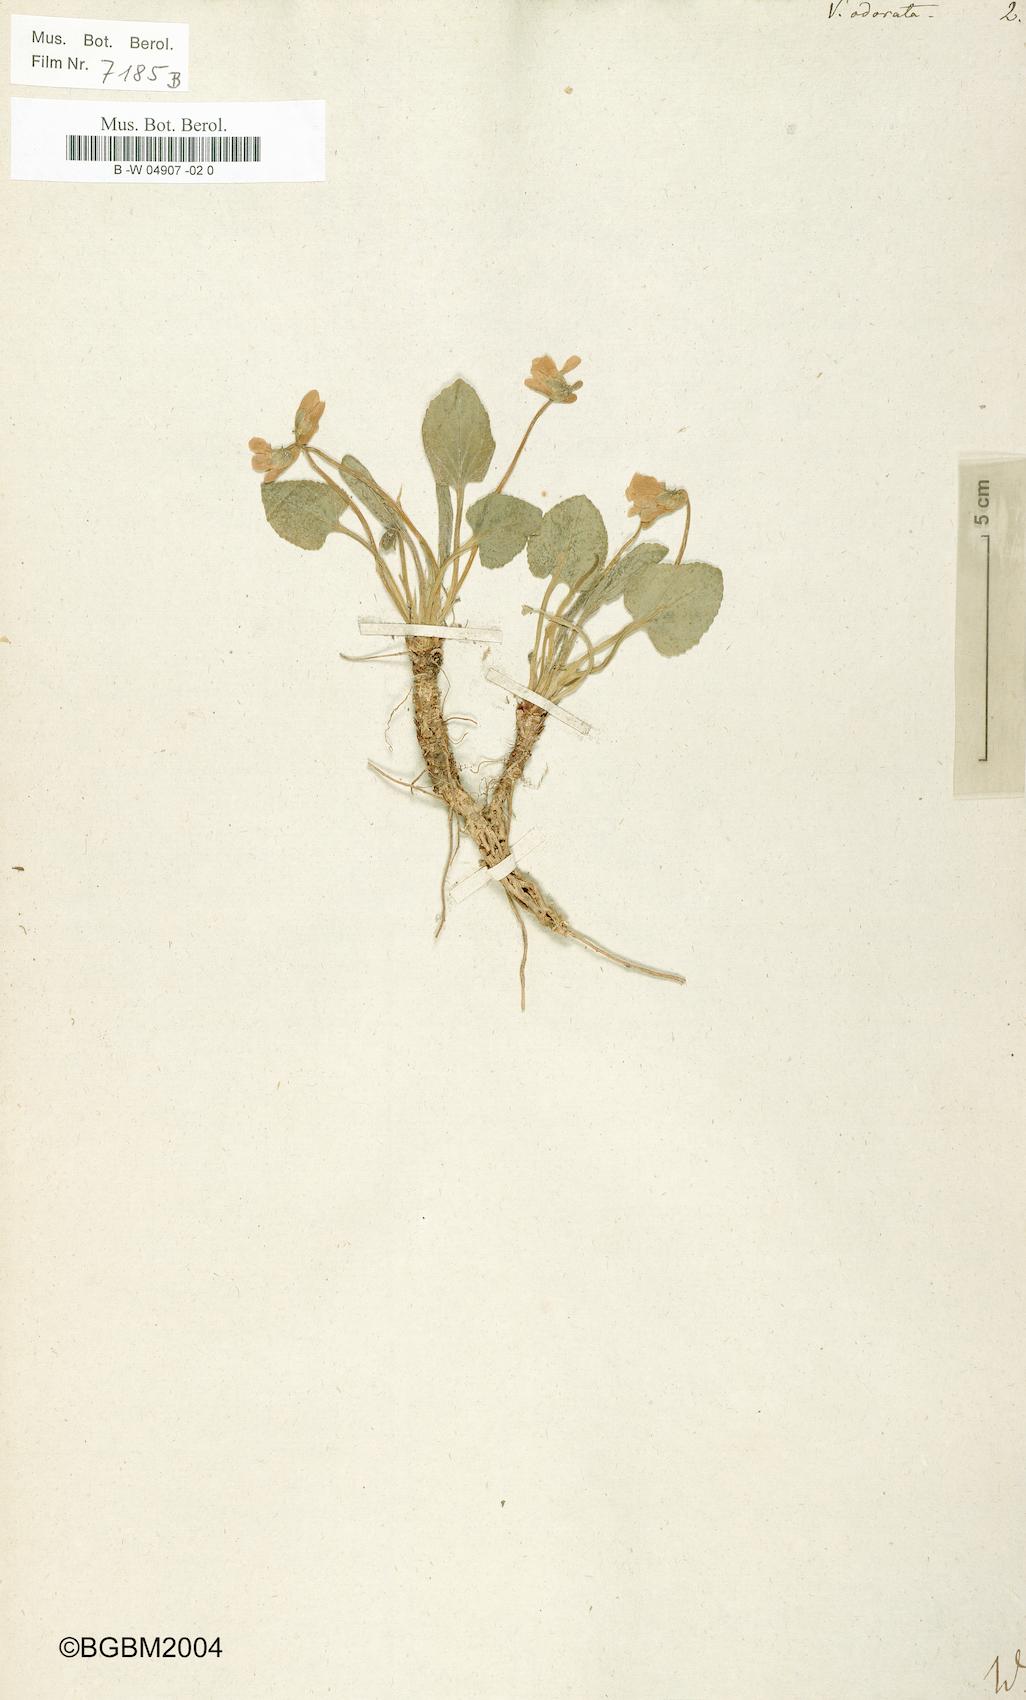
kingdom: Plantae
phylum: Tracheophyta
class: Magnoliopsida
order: Malpighiales
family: Violaceae
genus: Viola
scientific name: Viola odorata
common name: Sweet violet
